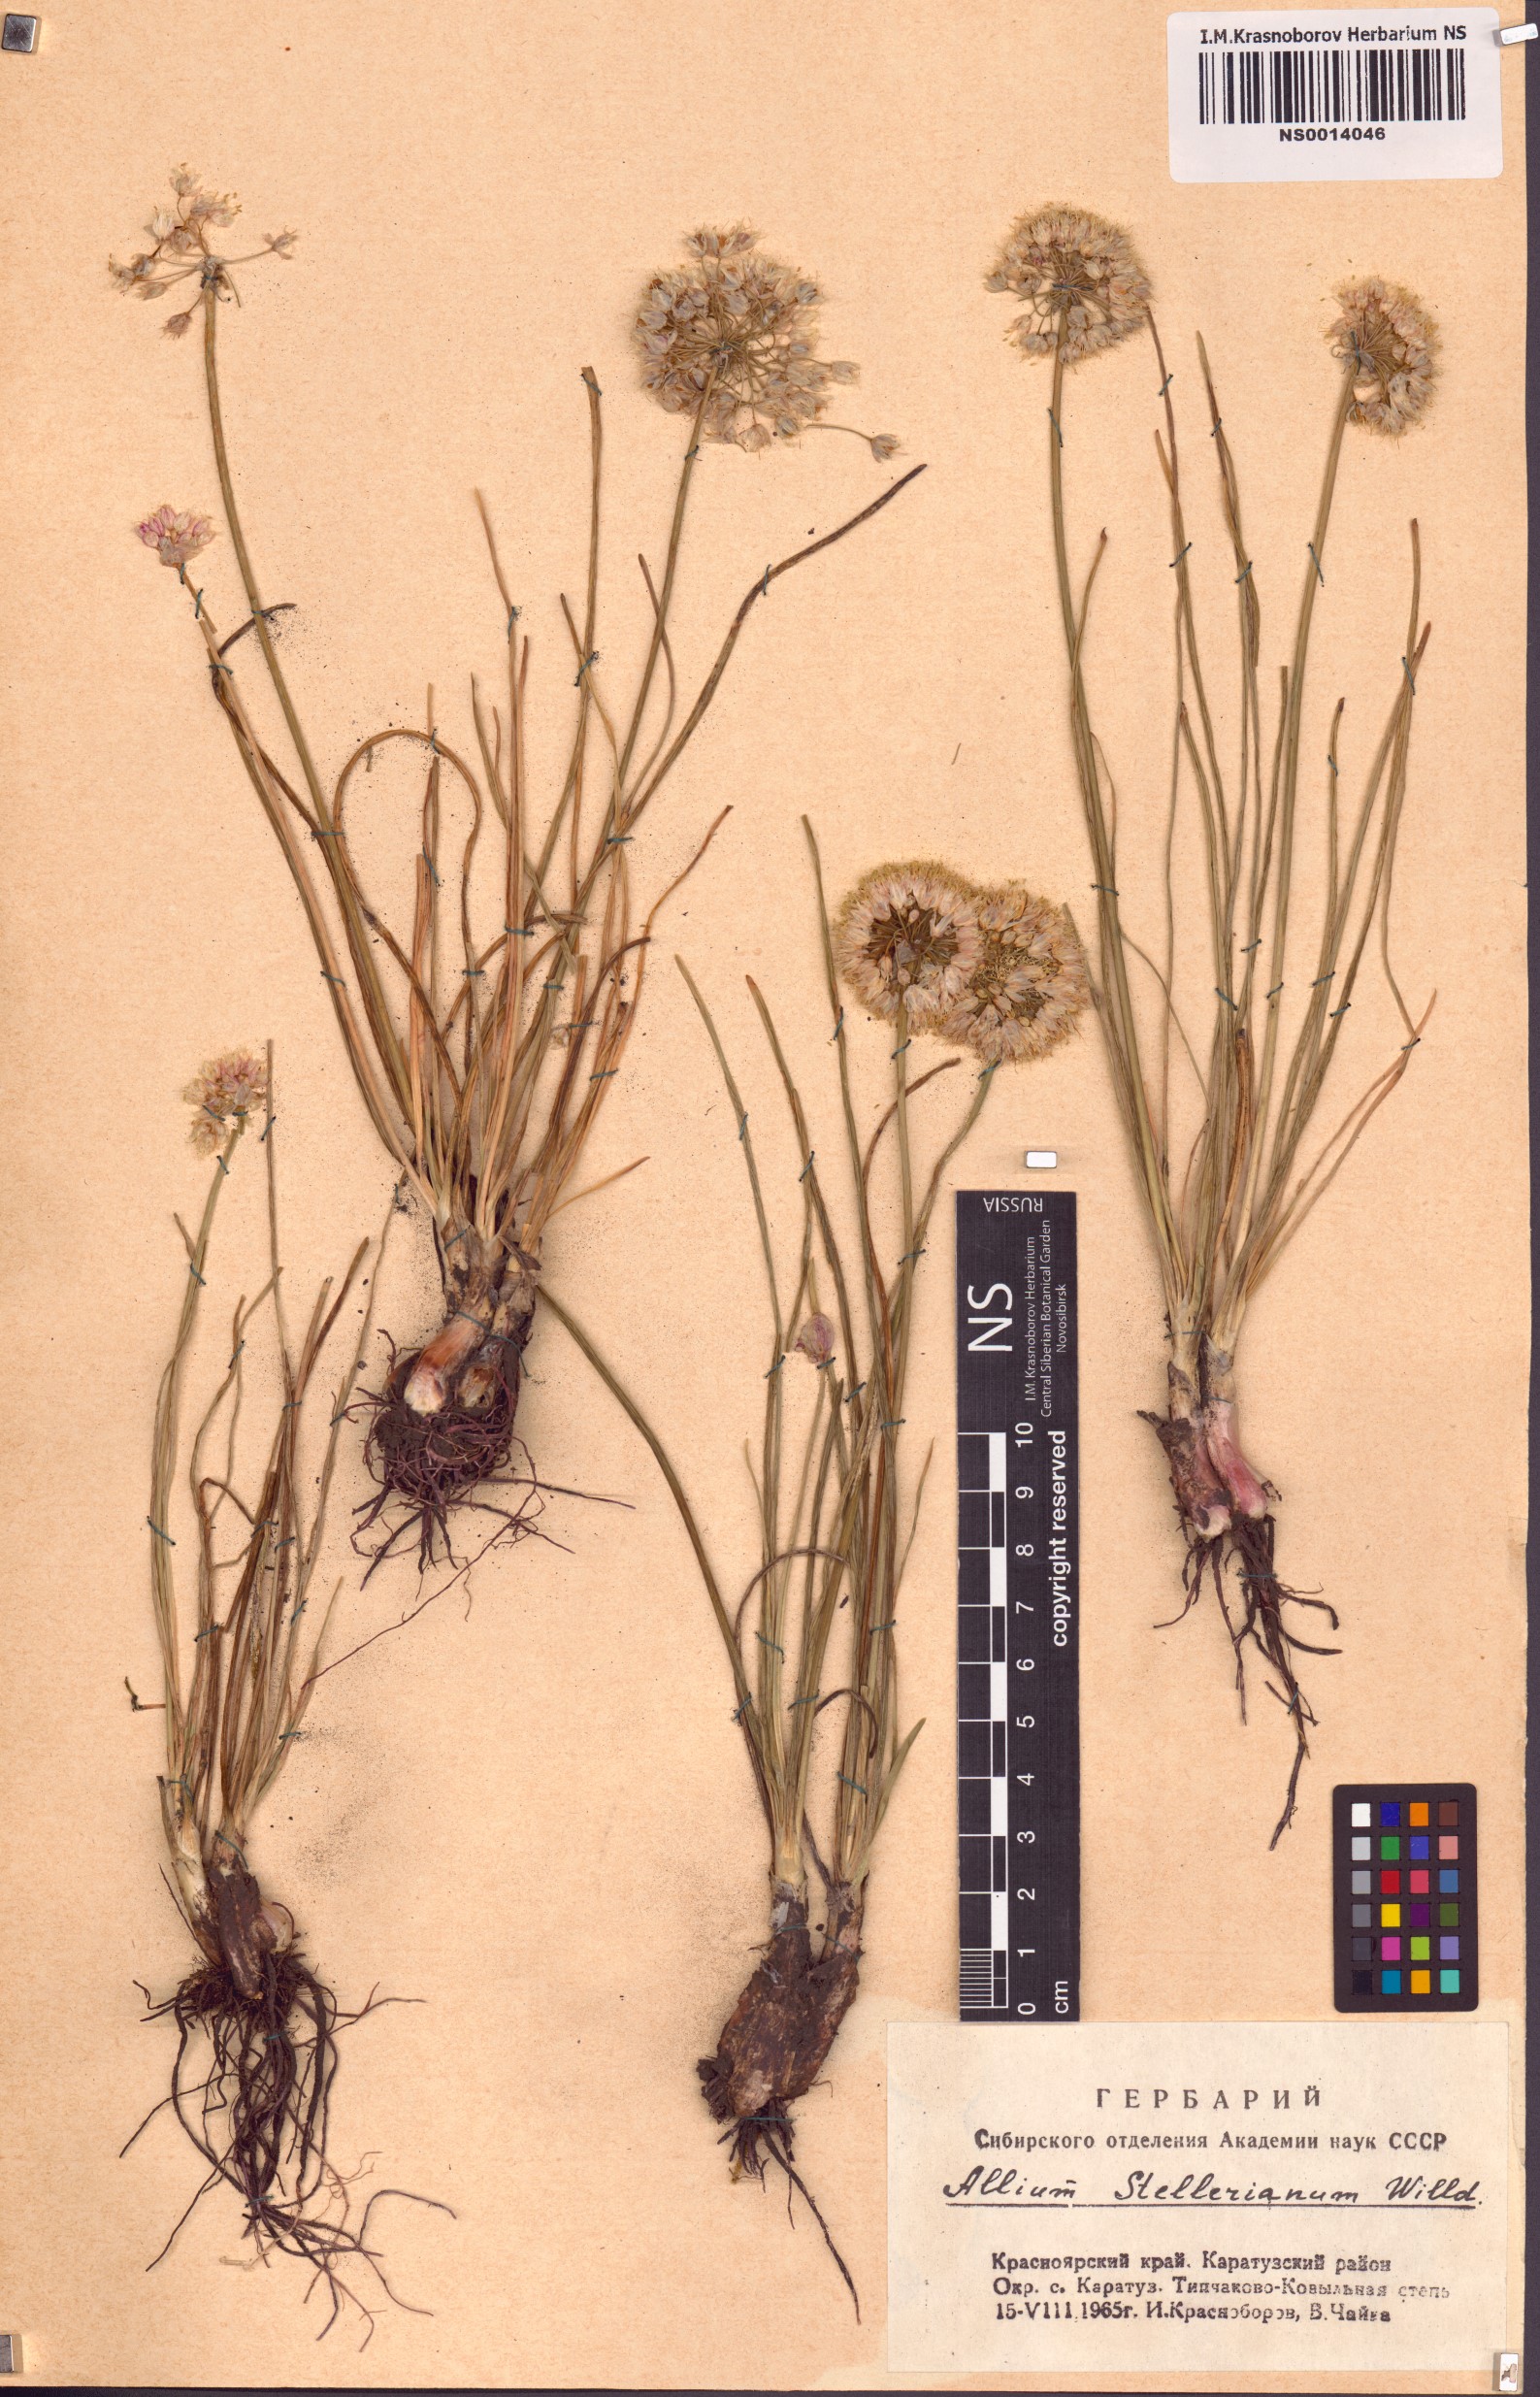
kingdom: Plantae
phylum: Tracheophyta
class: Liliopsida
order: Asparagales
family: Amaryllidaceae
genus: Allium
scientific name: Allium stellerianum
